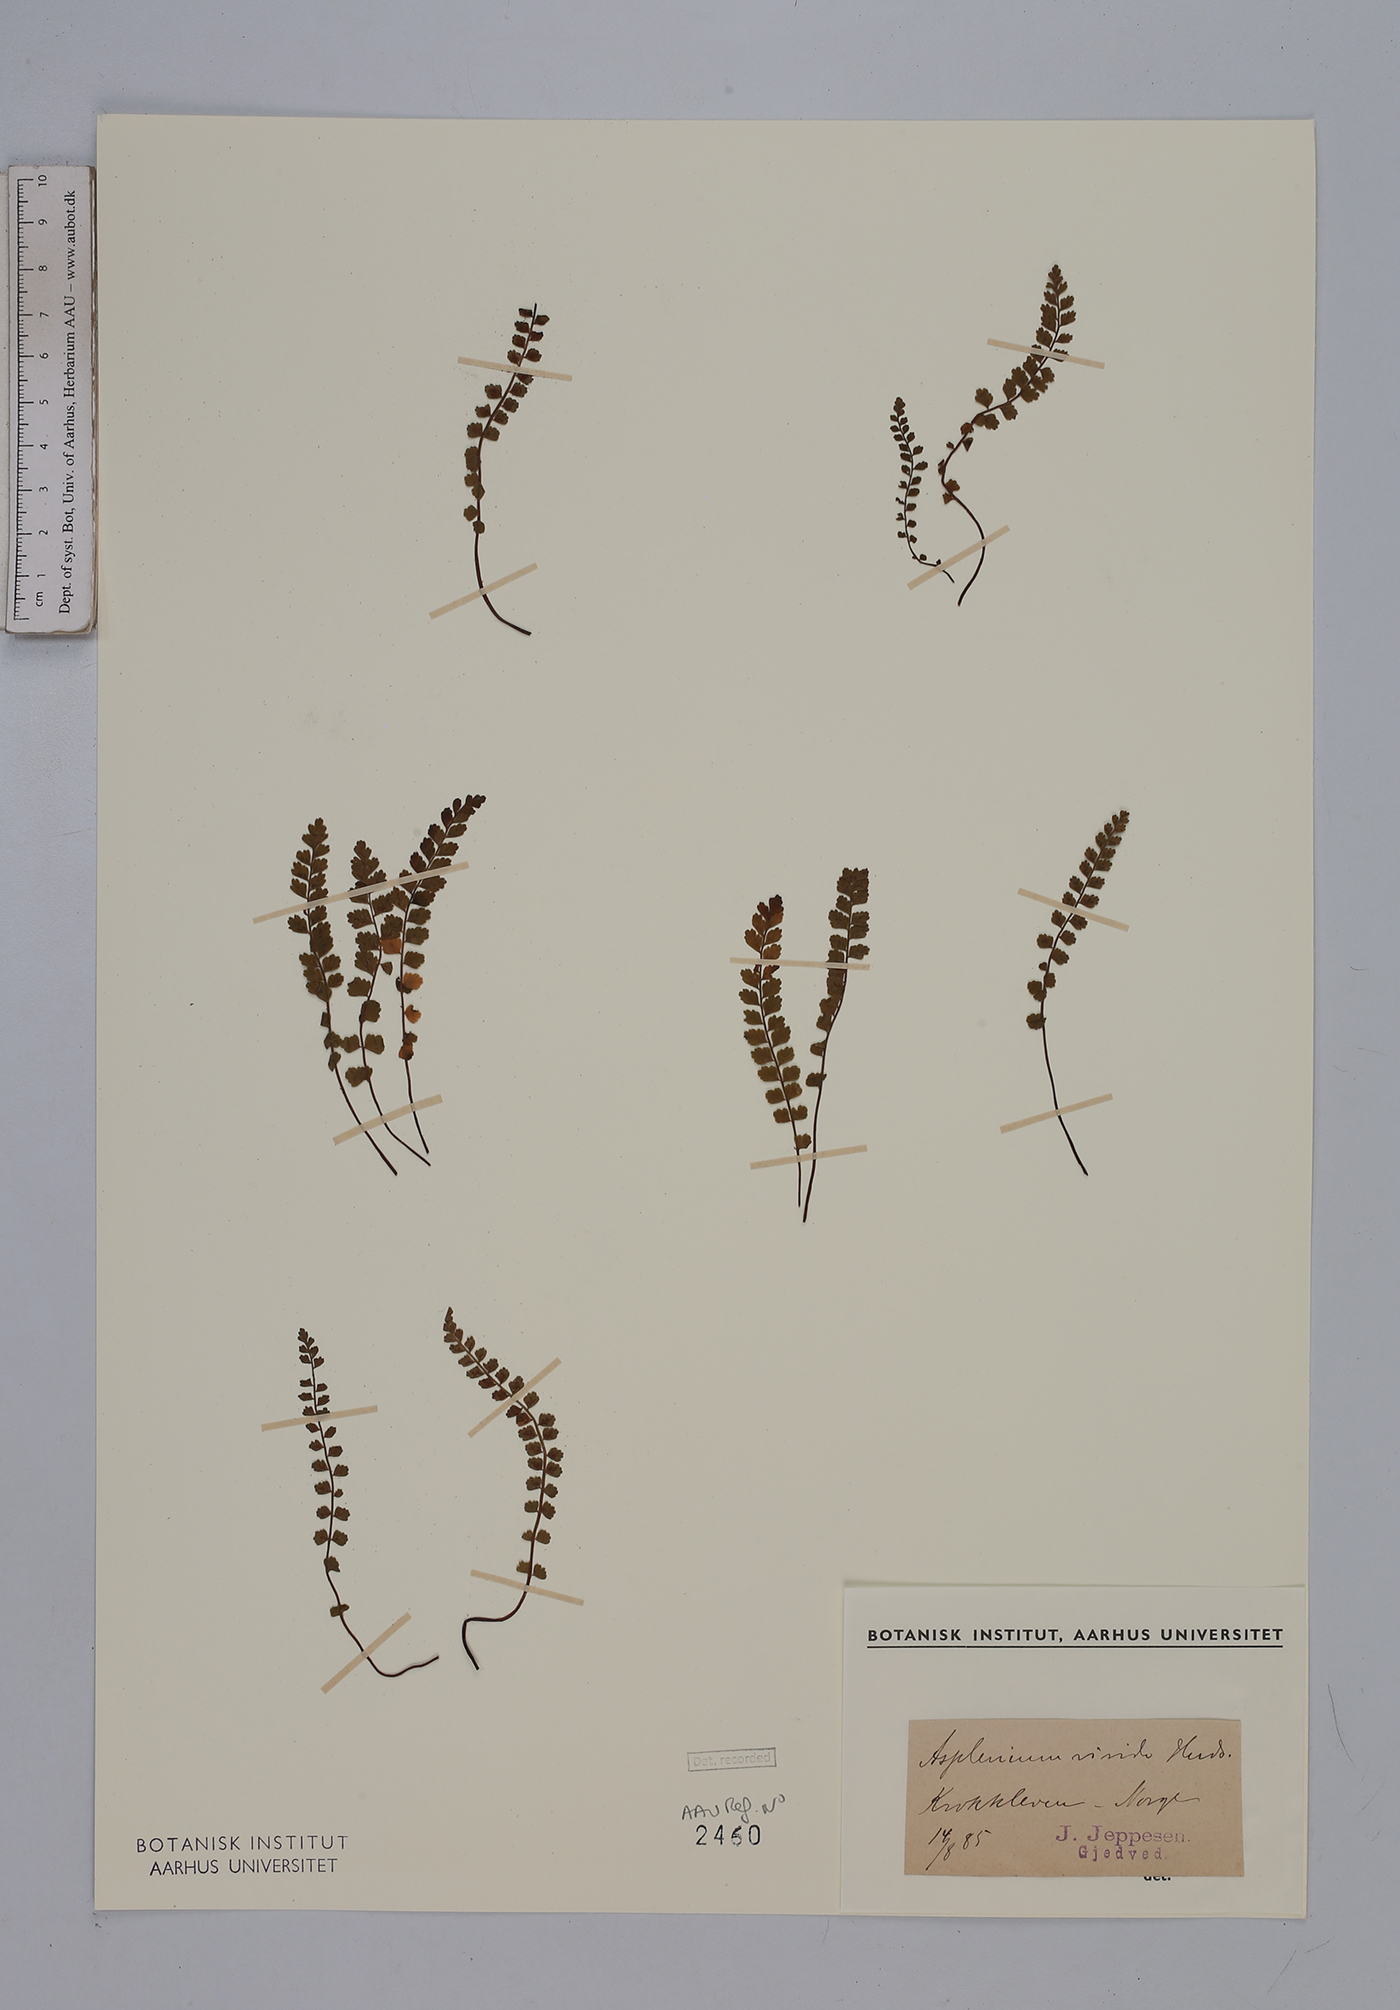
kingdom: Plantae
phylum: Tracheophyta
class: Polypodiopsida
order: Polypodiales
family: Aspleniaceae
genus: Asplenium
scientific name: Asplenium viride
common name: Green spleenwort
